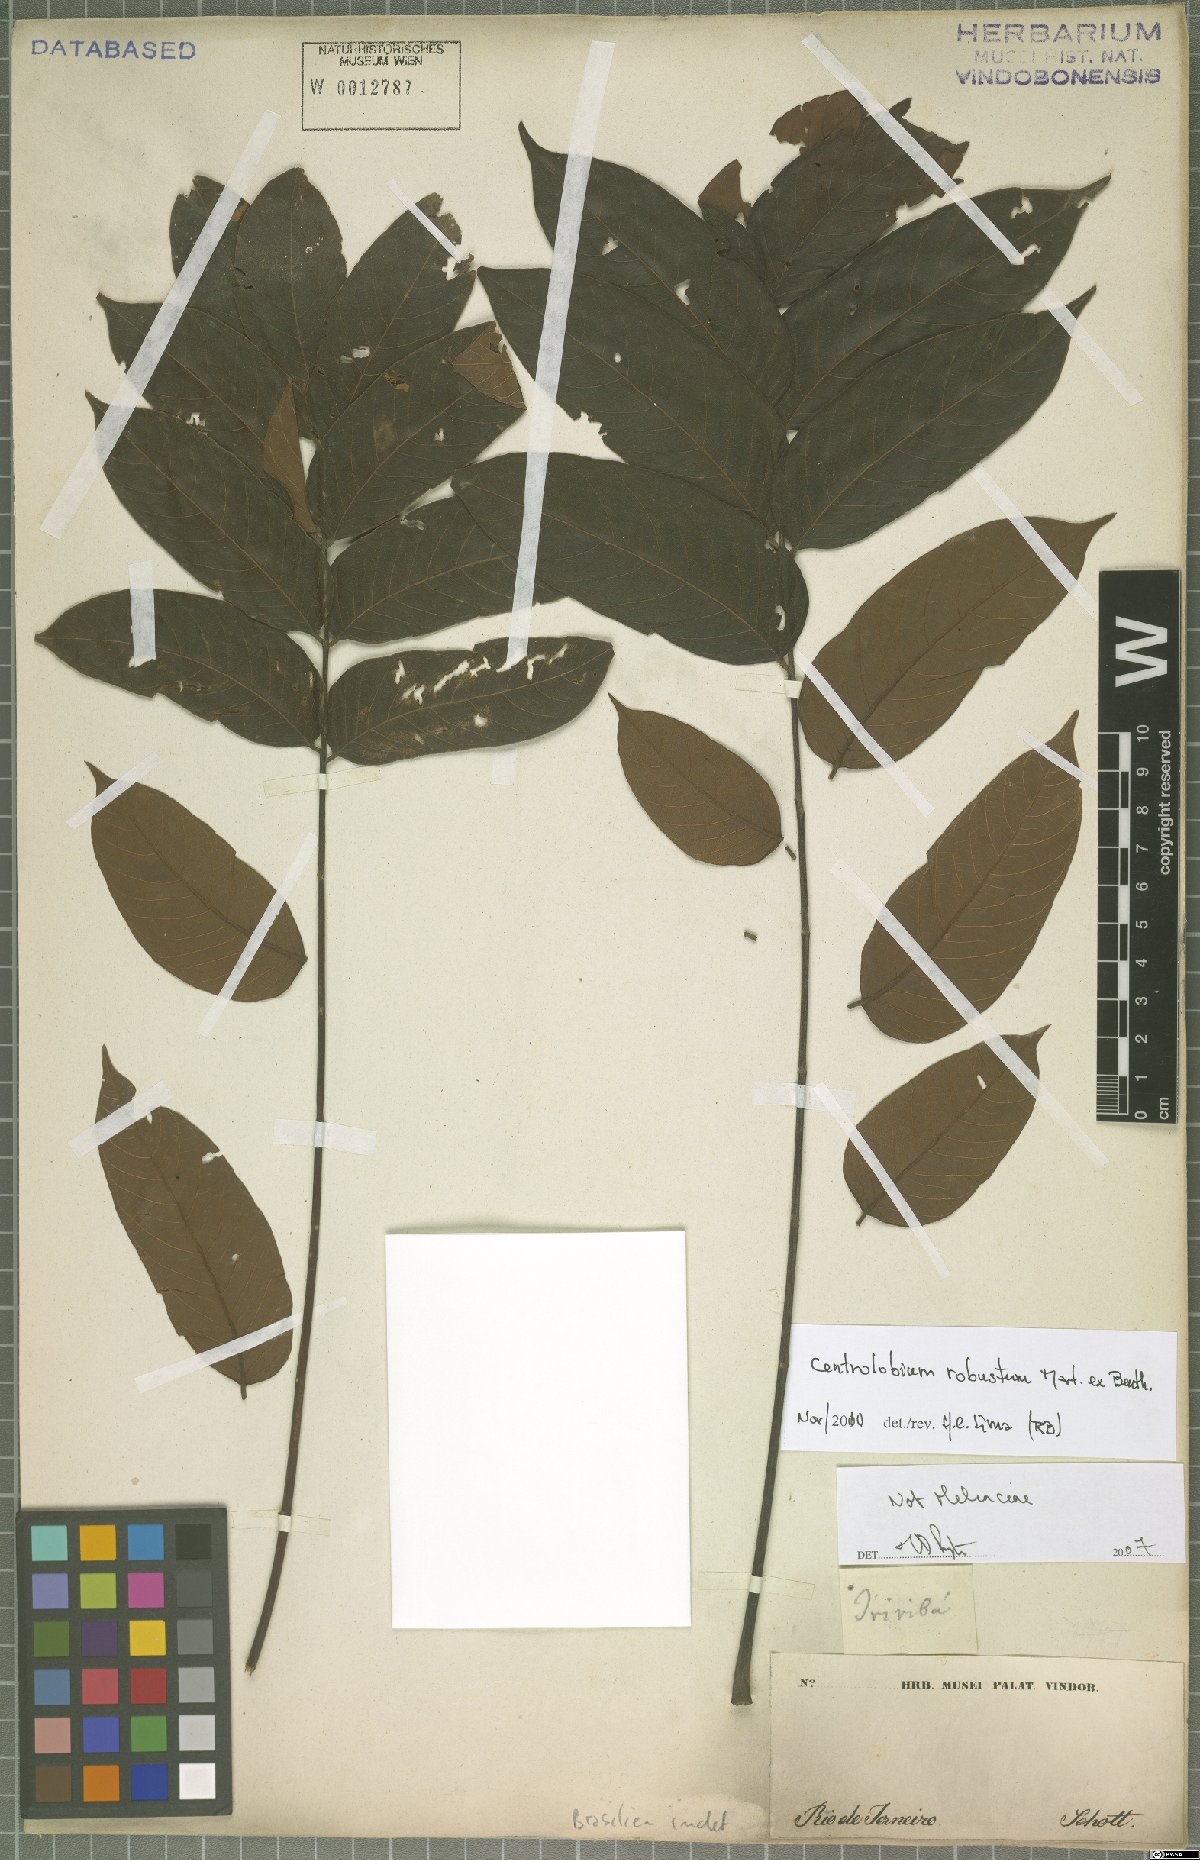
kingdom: Plantae
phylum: Tracheophyta
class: Magnoliopsida
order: Fabales
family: Fabaceae
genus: Centrolobium
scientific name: Centrolobium robustum
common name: Zebrawood
